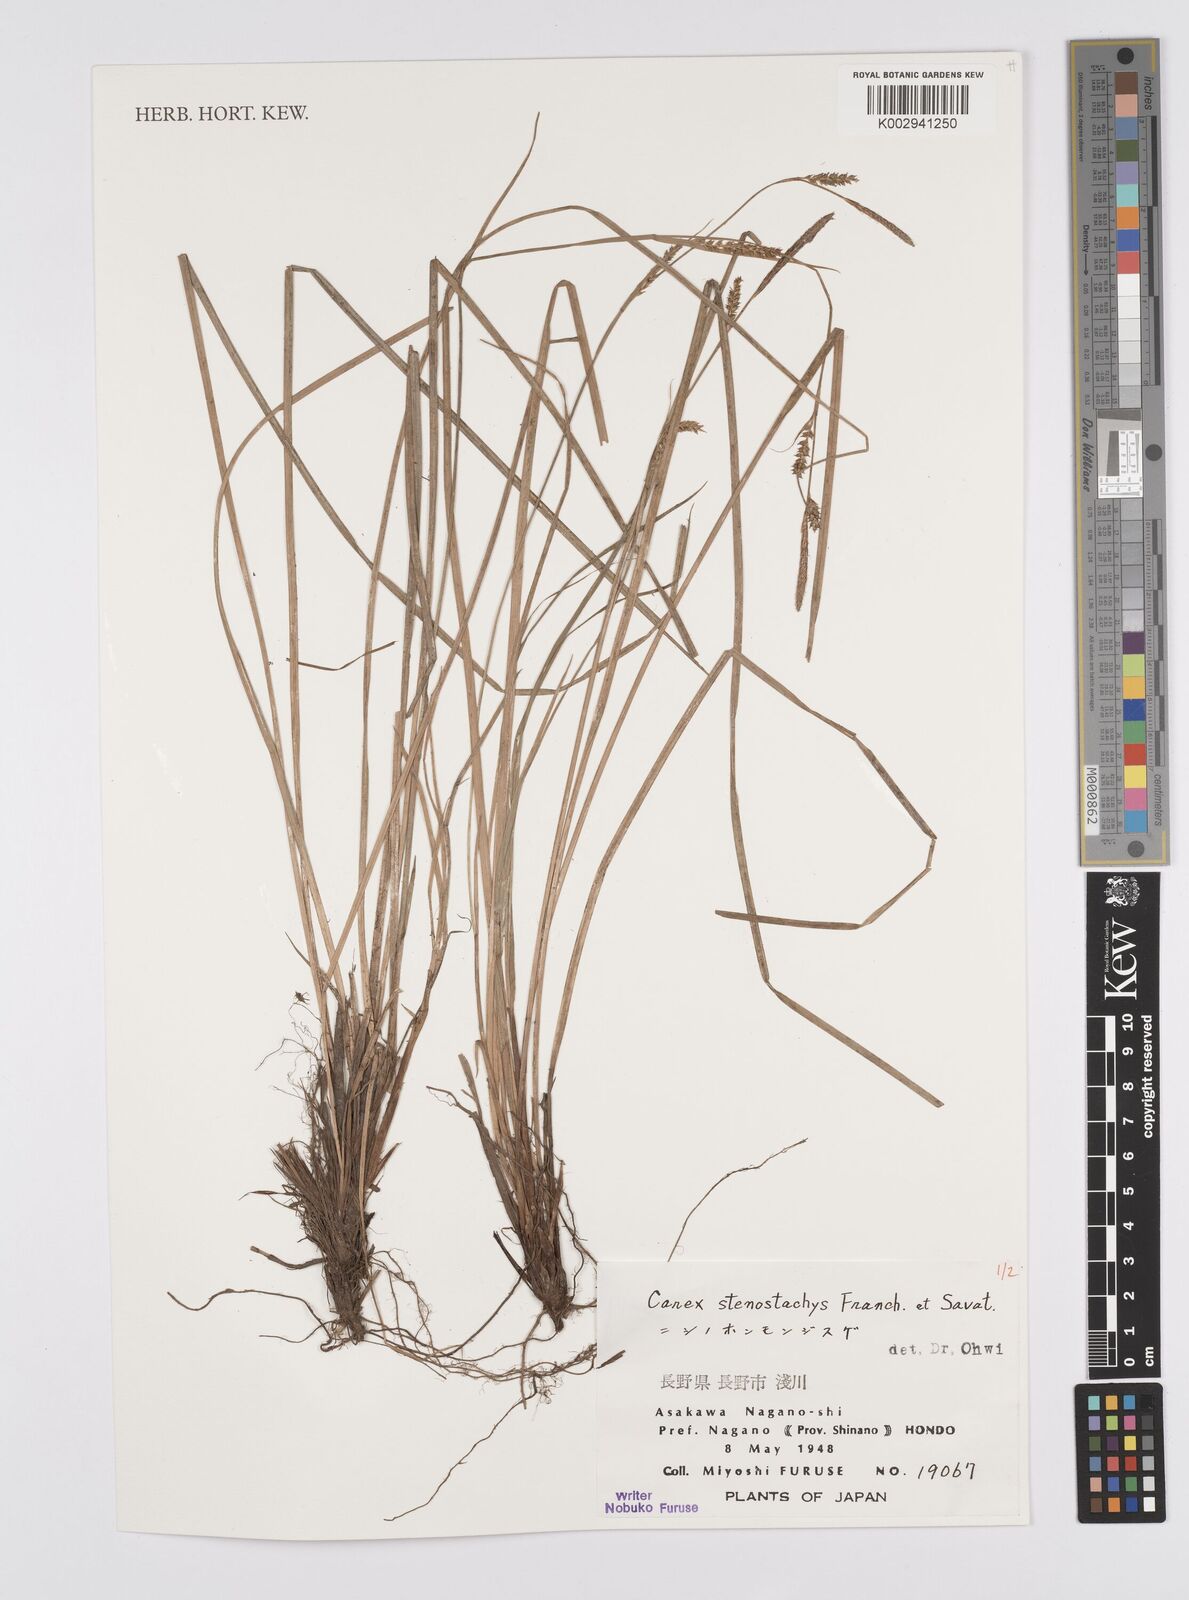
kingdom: Plantae
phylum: Tracheophyta
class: Liliopsida
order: Poales
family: Cyperaceae
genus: Carex
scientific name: Carex pisiformis
